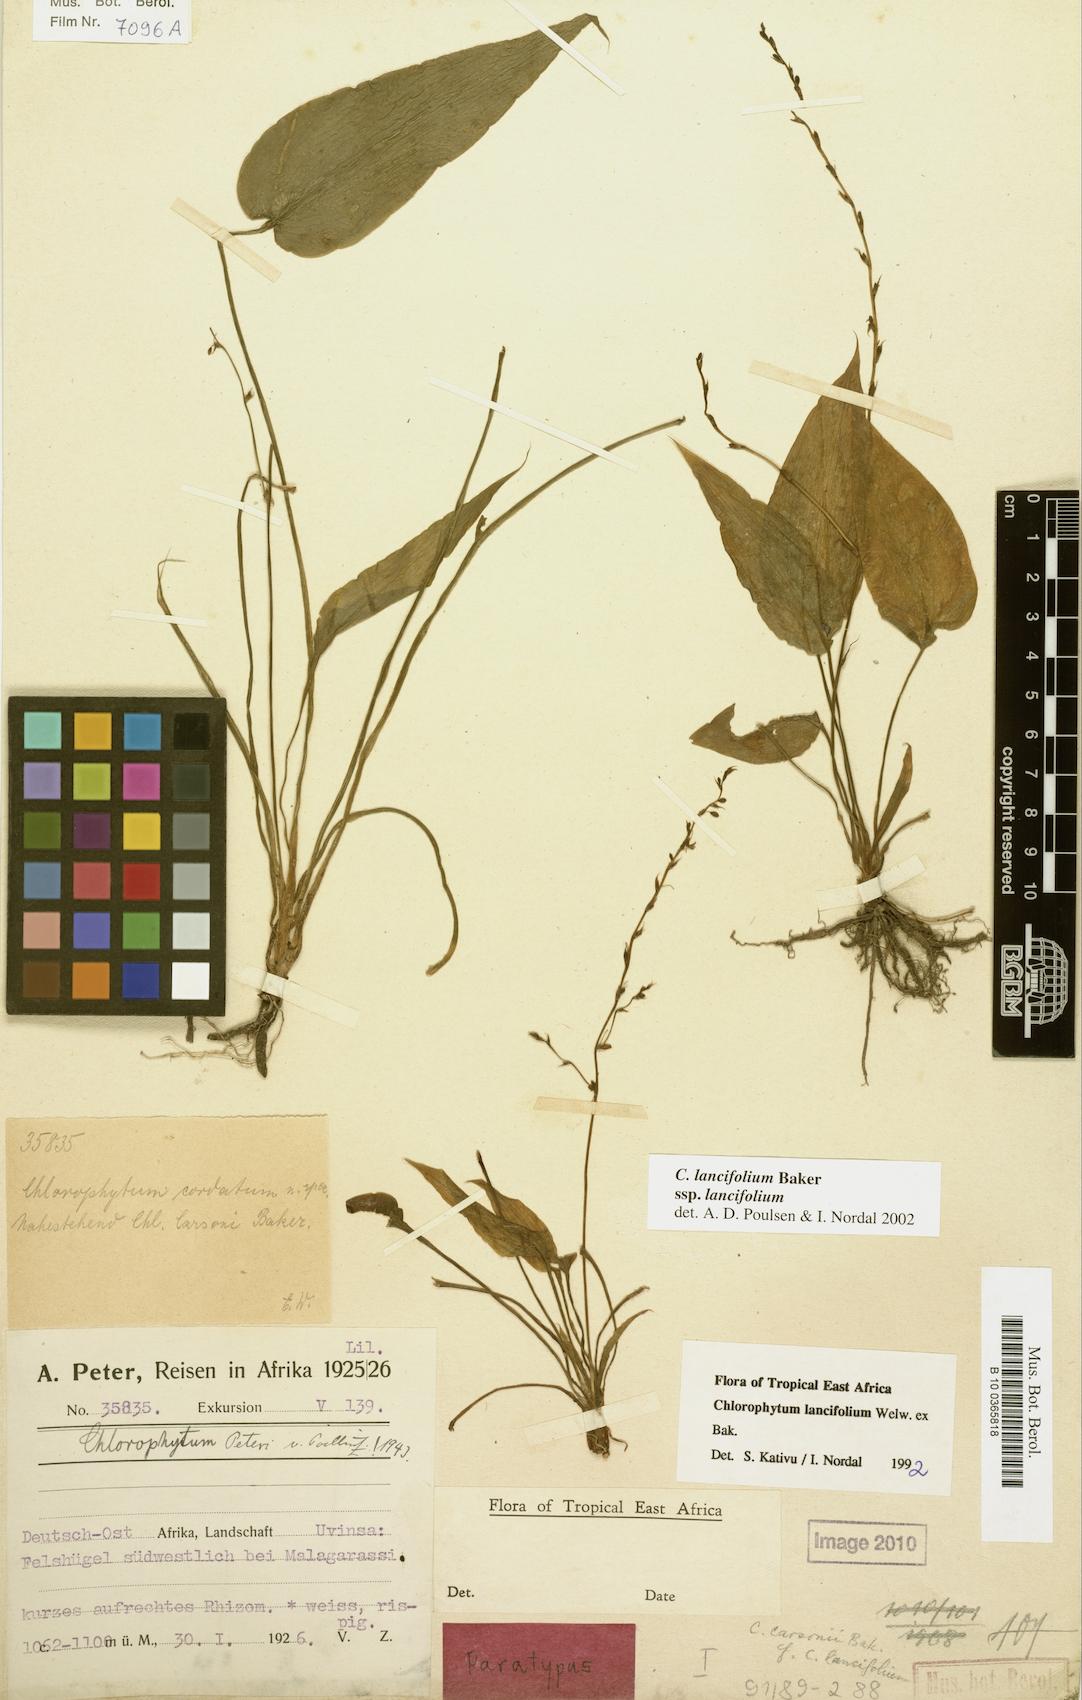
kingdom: Plantae
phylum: Tracheophyta
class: Liliopsida
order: Asparagales
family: Asparagaceae
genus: Chlorophytum
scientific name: Chlorophytum lancifolium
